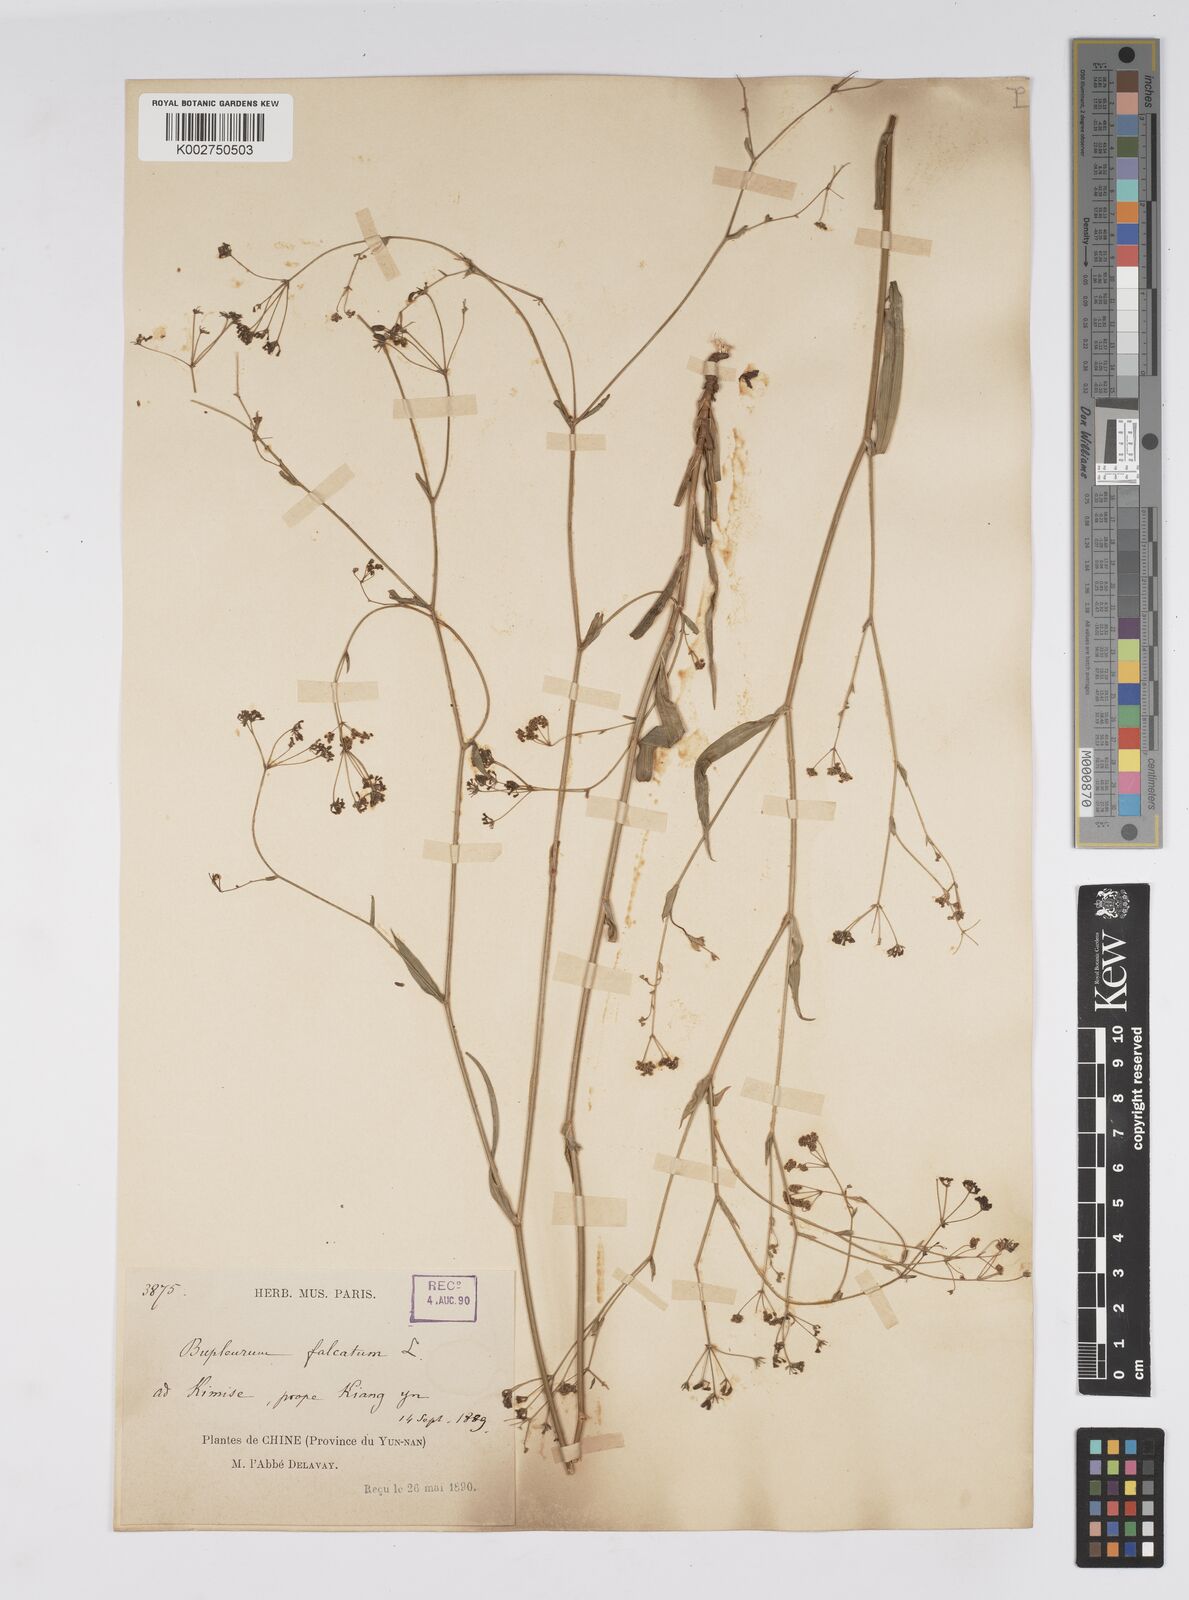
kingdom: Plantae
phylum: Tracheophyta
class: Magnoliopsida
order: Apiales
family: Apiaceae
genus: Bupleurum
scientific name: Bupleurum krylovianum
